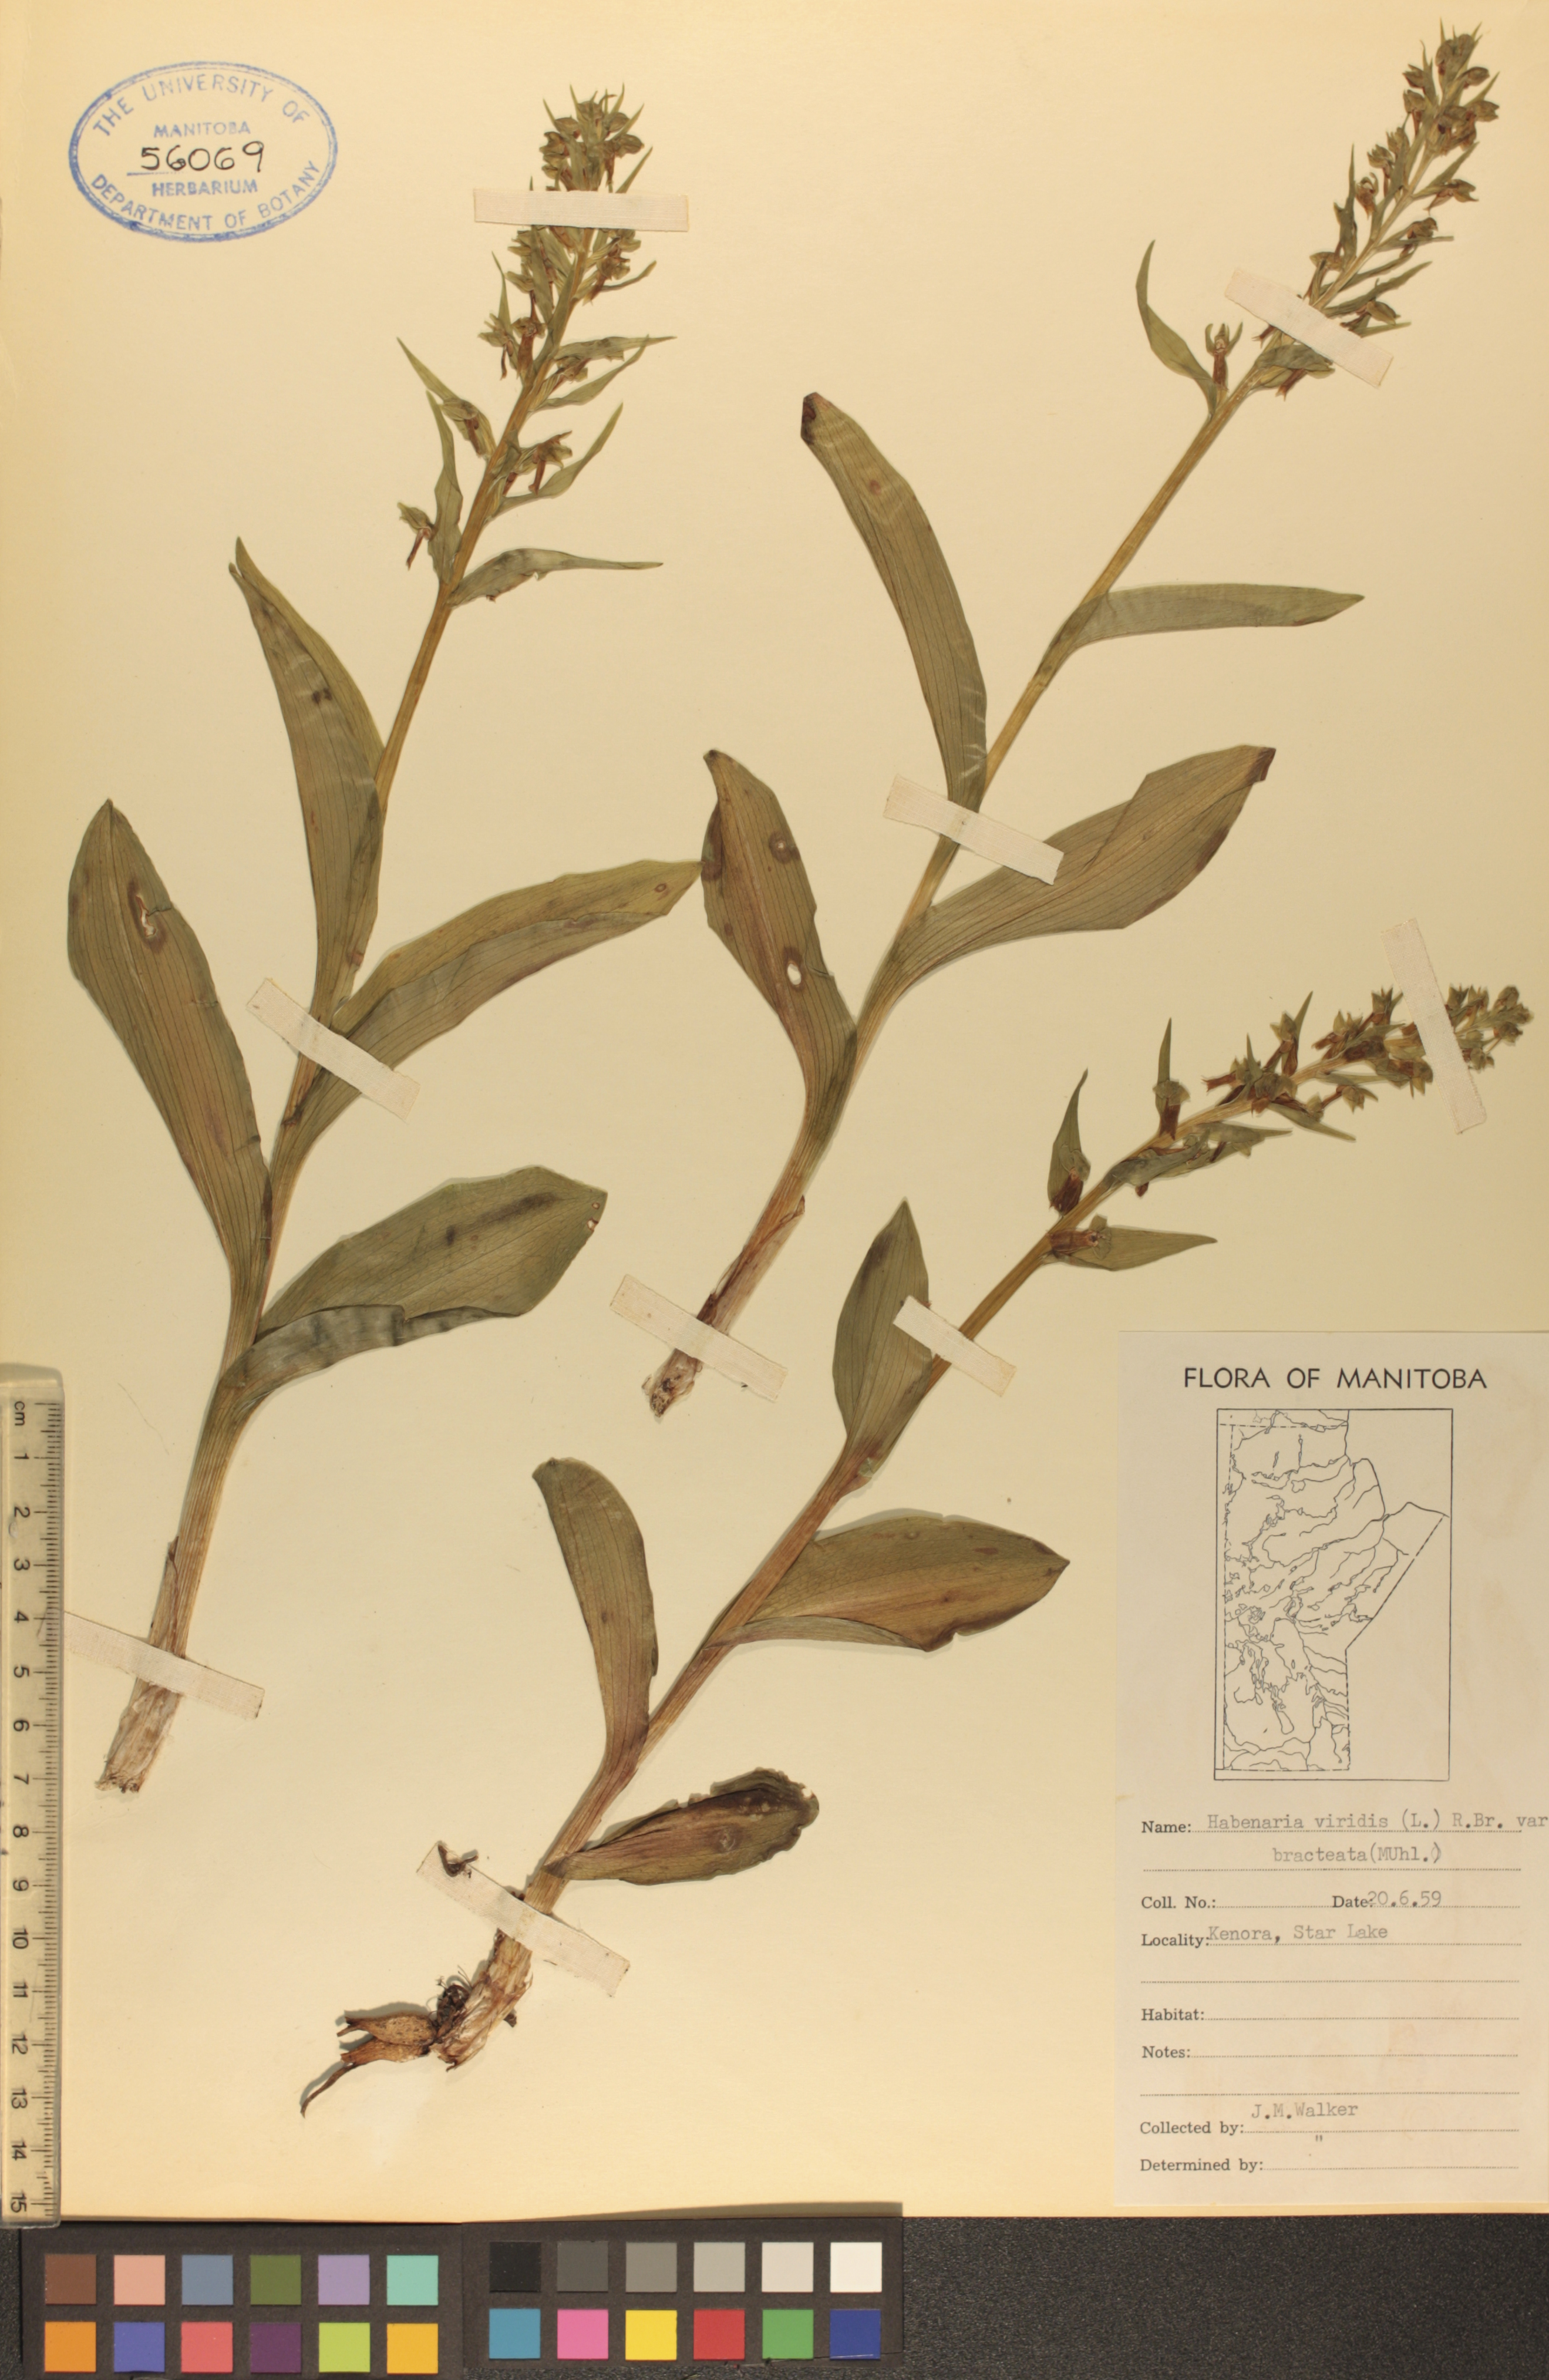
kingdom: Plantae
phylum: Tracheophyta
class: Liliopsida
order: Asparagales
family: Orchidaceae
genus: Dactylorhiza
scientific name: Dactylorhiza viridis
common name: Longbract frog orchid
